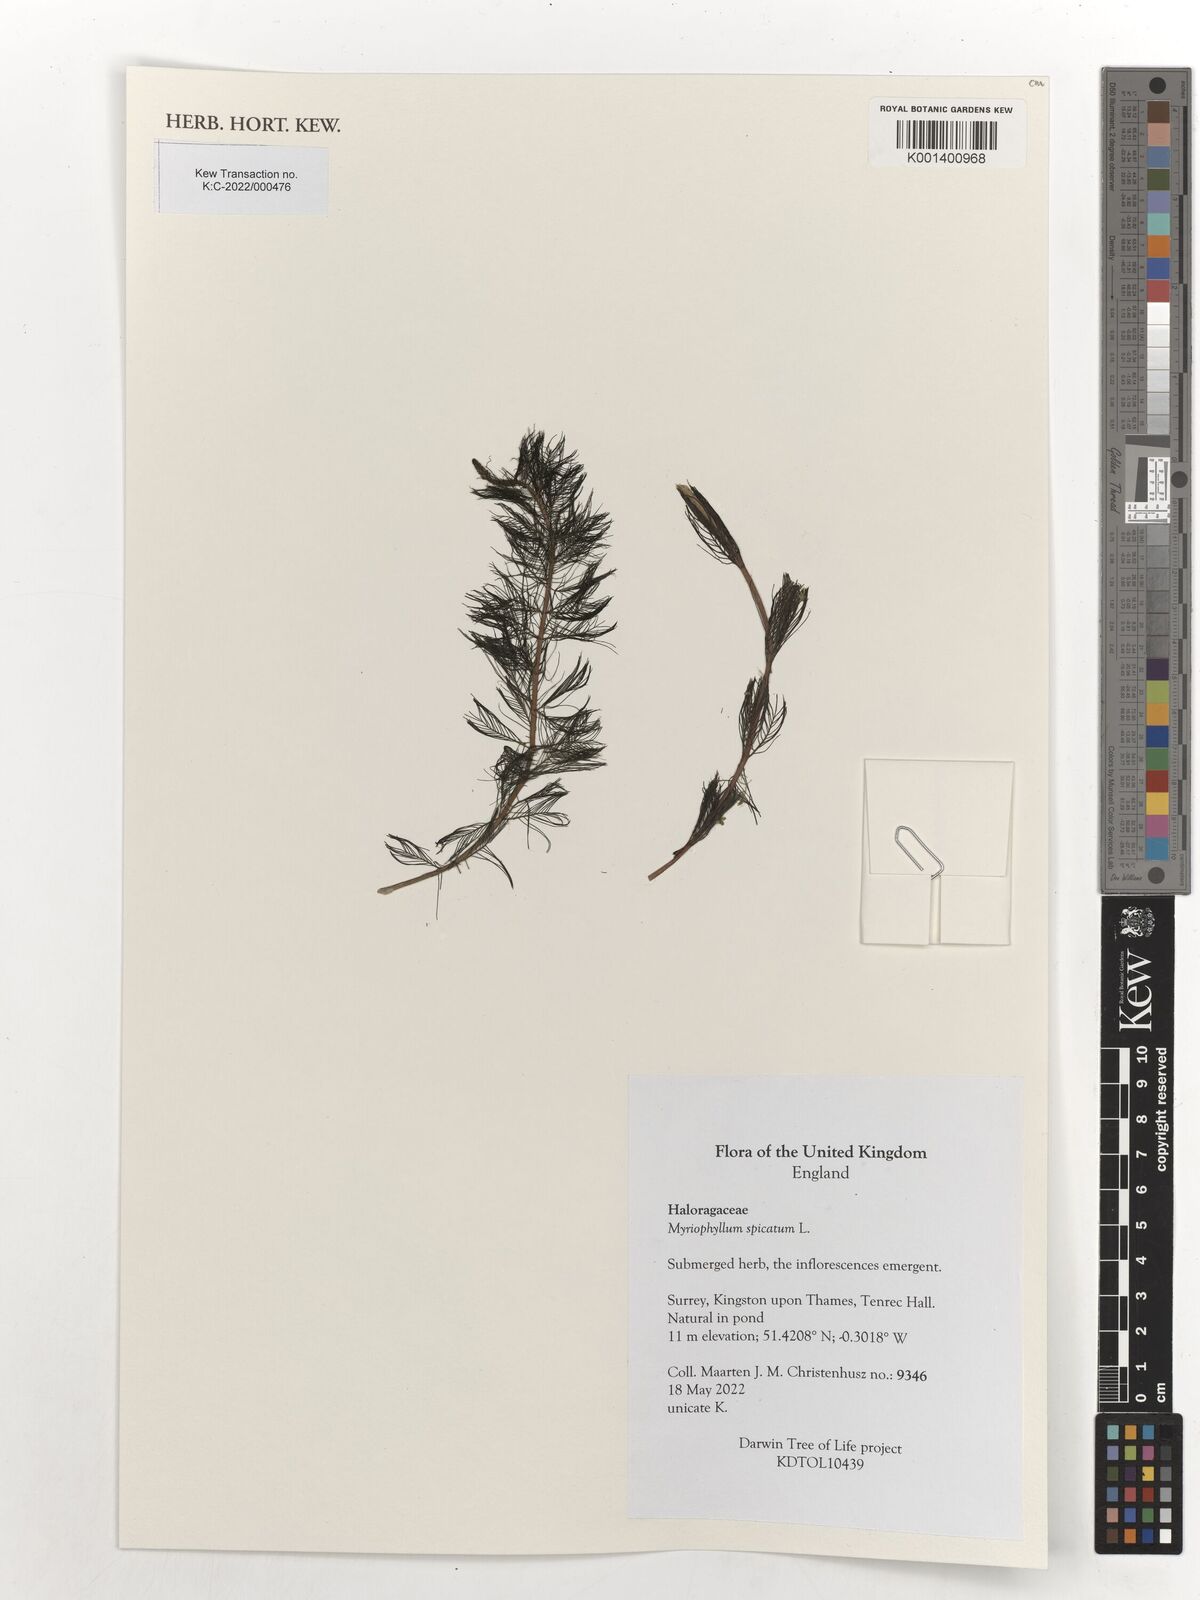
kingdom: Plantae
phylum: Tracheophyta
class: Magnoliopsida
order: Saxifragales
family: Haloragaceae
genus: Myriophyllum
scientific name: Myriophyllum spicatum
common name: Spiked water-milfoil
